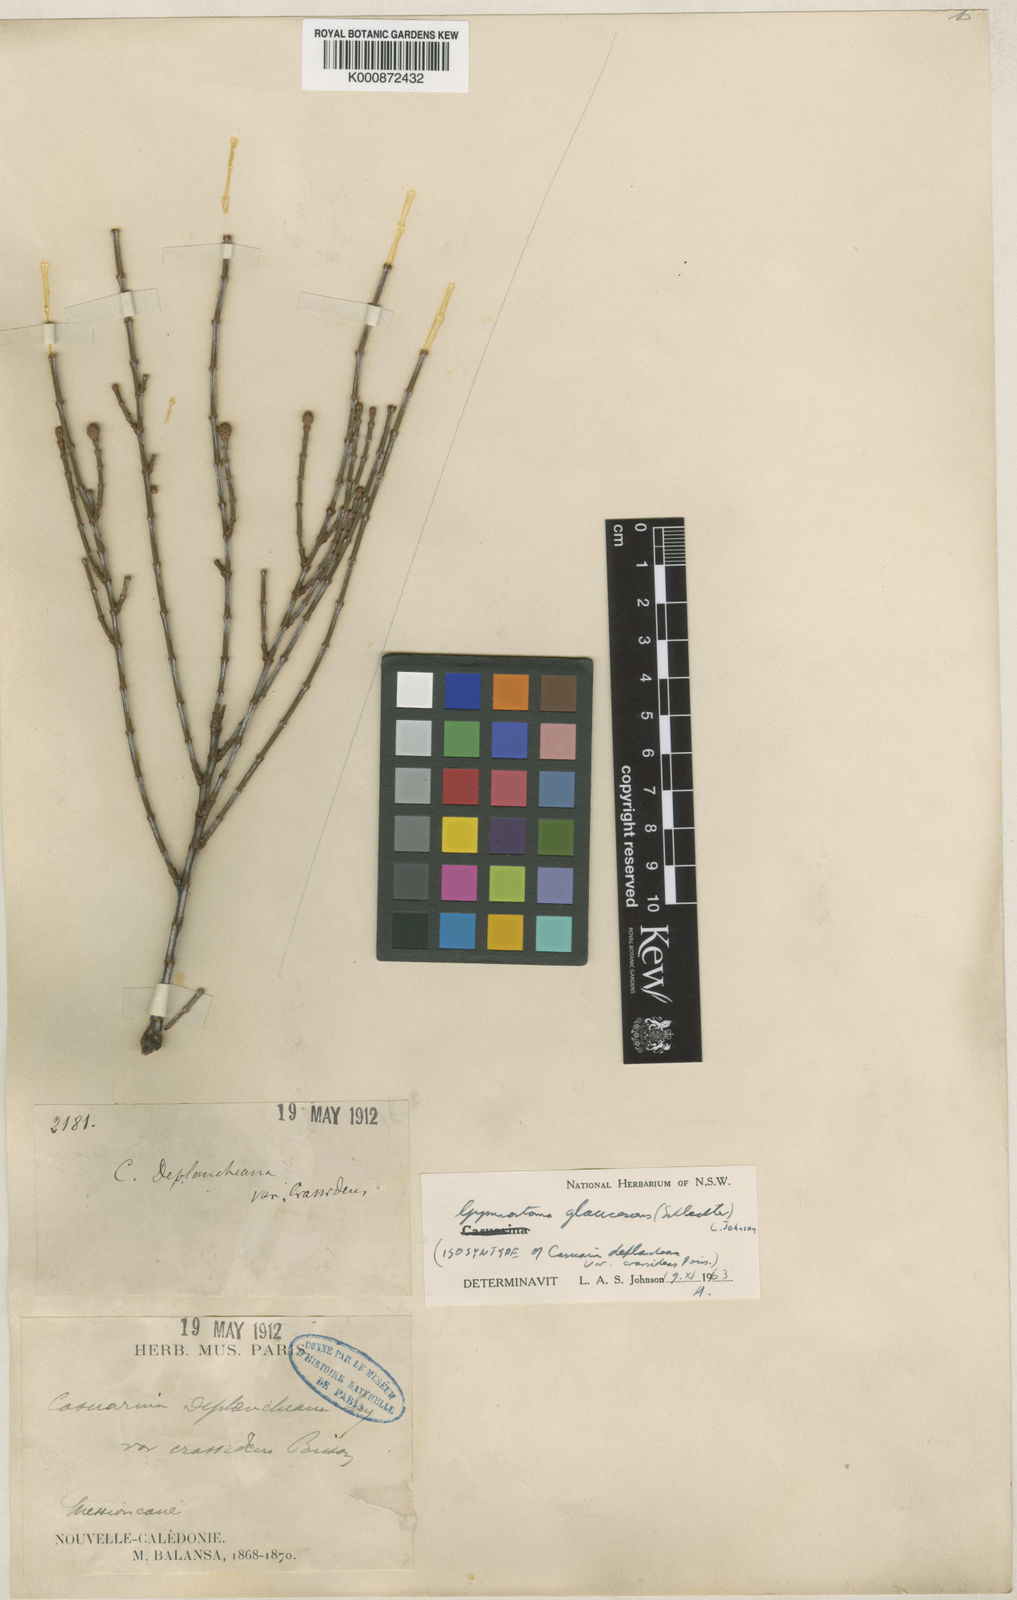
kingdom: Plantae
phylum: Tracheophyta
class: Magnoliopsida
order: Fagales
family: Casuarinaceae
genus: Gymnostoma
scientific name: Gymnostoma glaucescens
